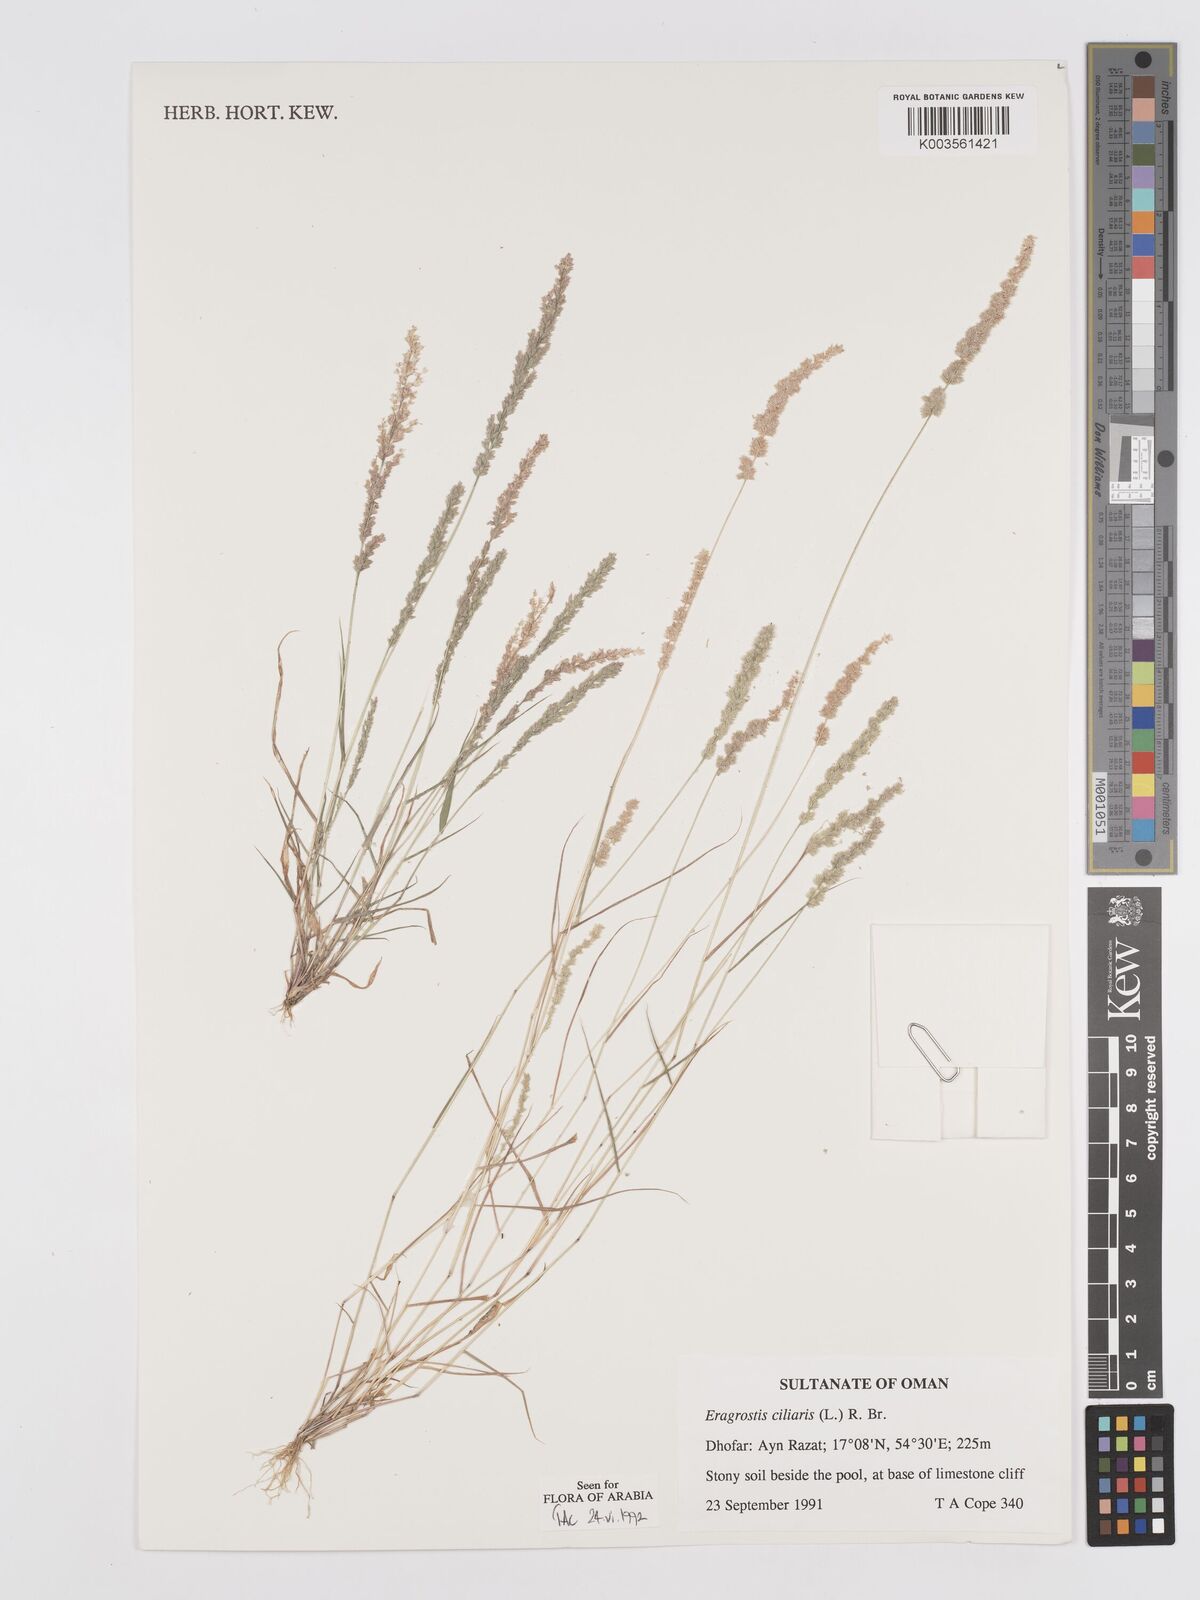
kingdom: Plantae
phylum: Tracheophyta
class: Liliopsida
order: Poales
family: Poaceae
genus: Eragrostis
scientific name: Eragrostis ciliaris
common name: Gophertail lovegrass
